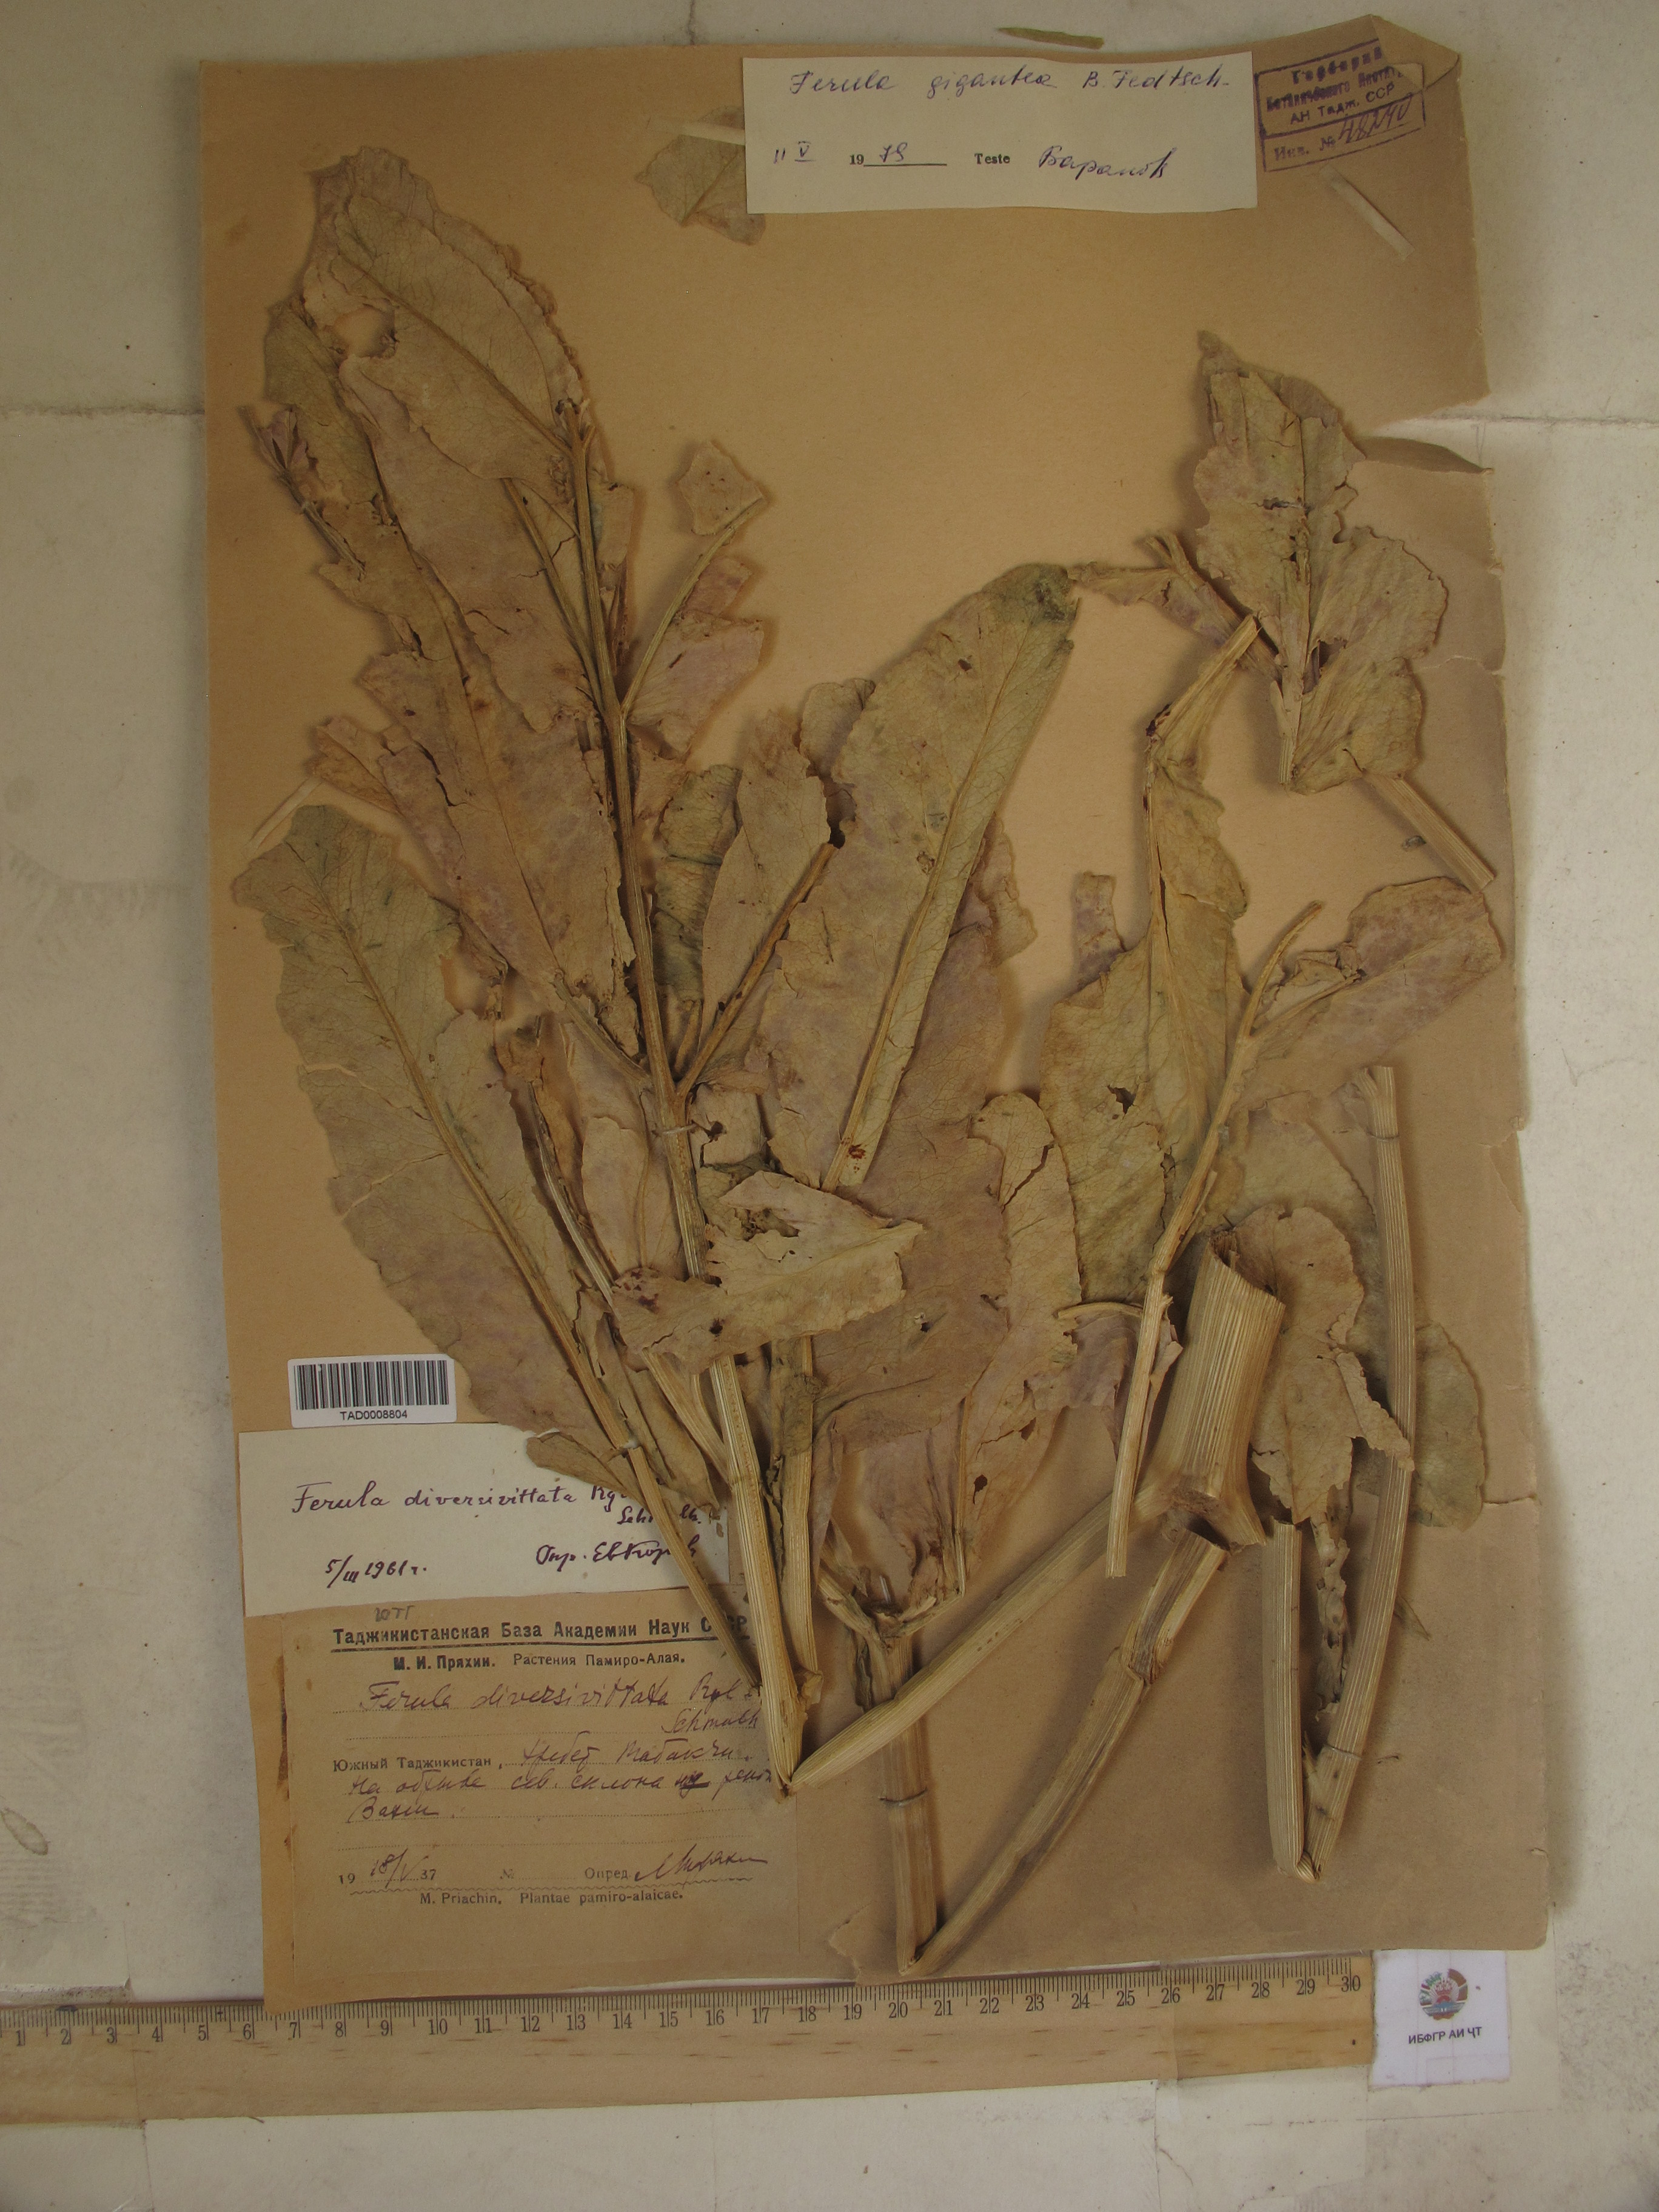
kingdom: Plantae
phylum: Tracheophyta
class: Magnoliopsida
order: Apiales
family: Apiaceae
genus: Ferula
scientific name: Ferula gigantea
